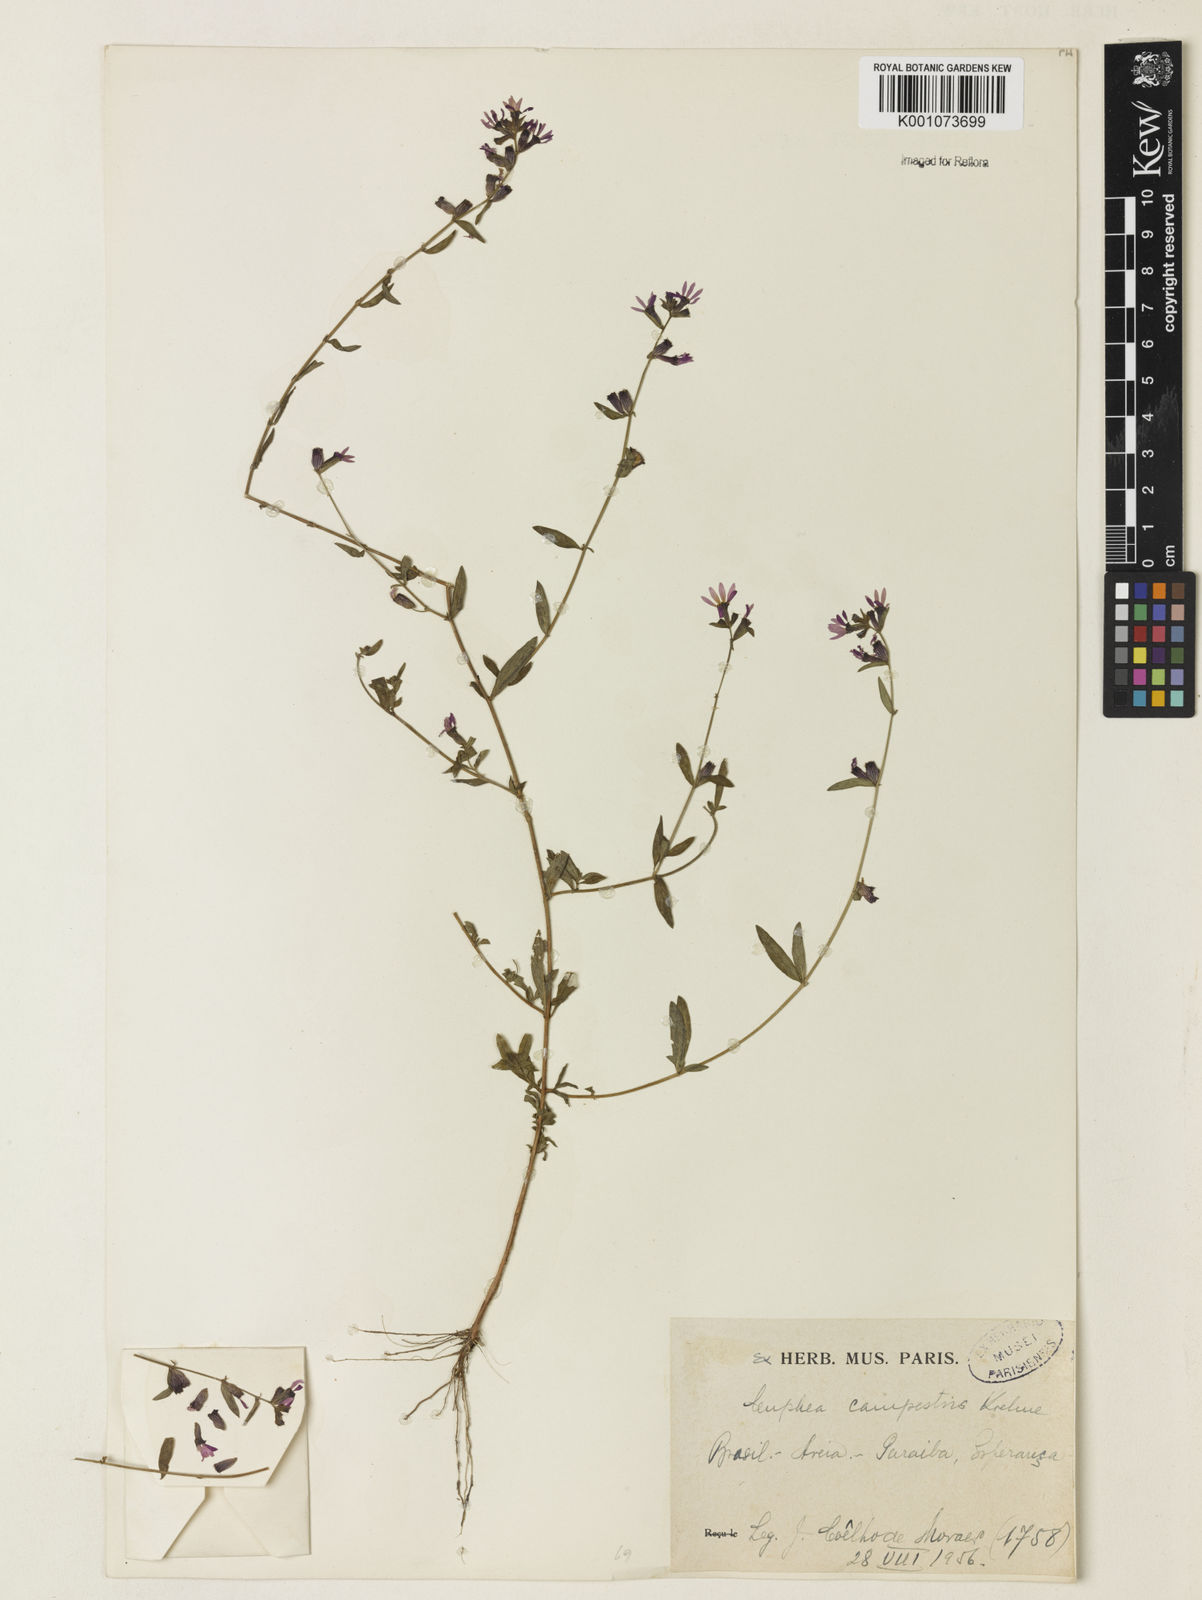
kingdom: Plantae
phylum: Tracheophyta
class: Magnoliopsida
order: Myrtales
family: Lythraceae
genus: Cuphea
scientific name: Cuphea campestris
